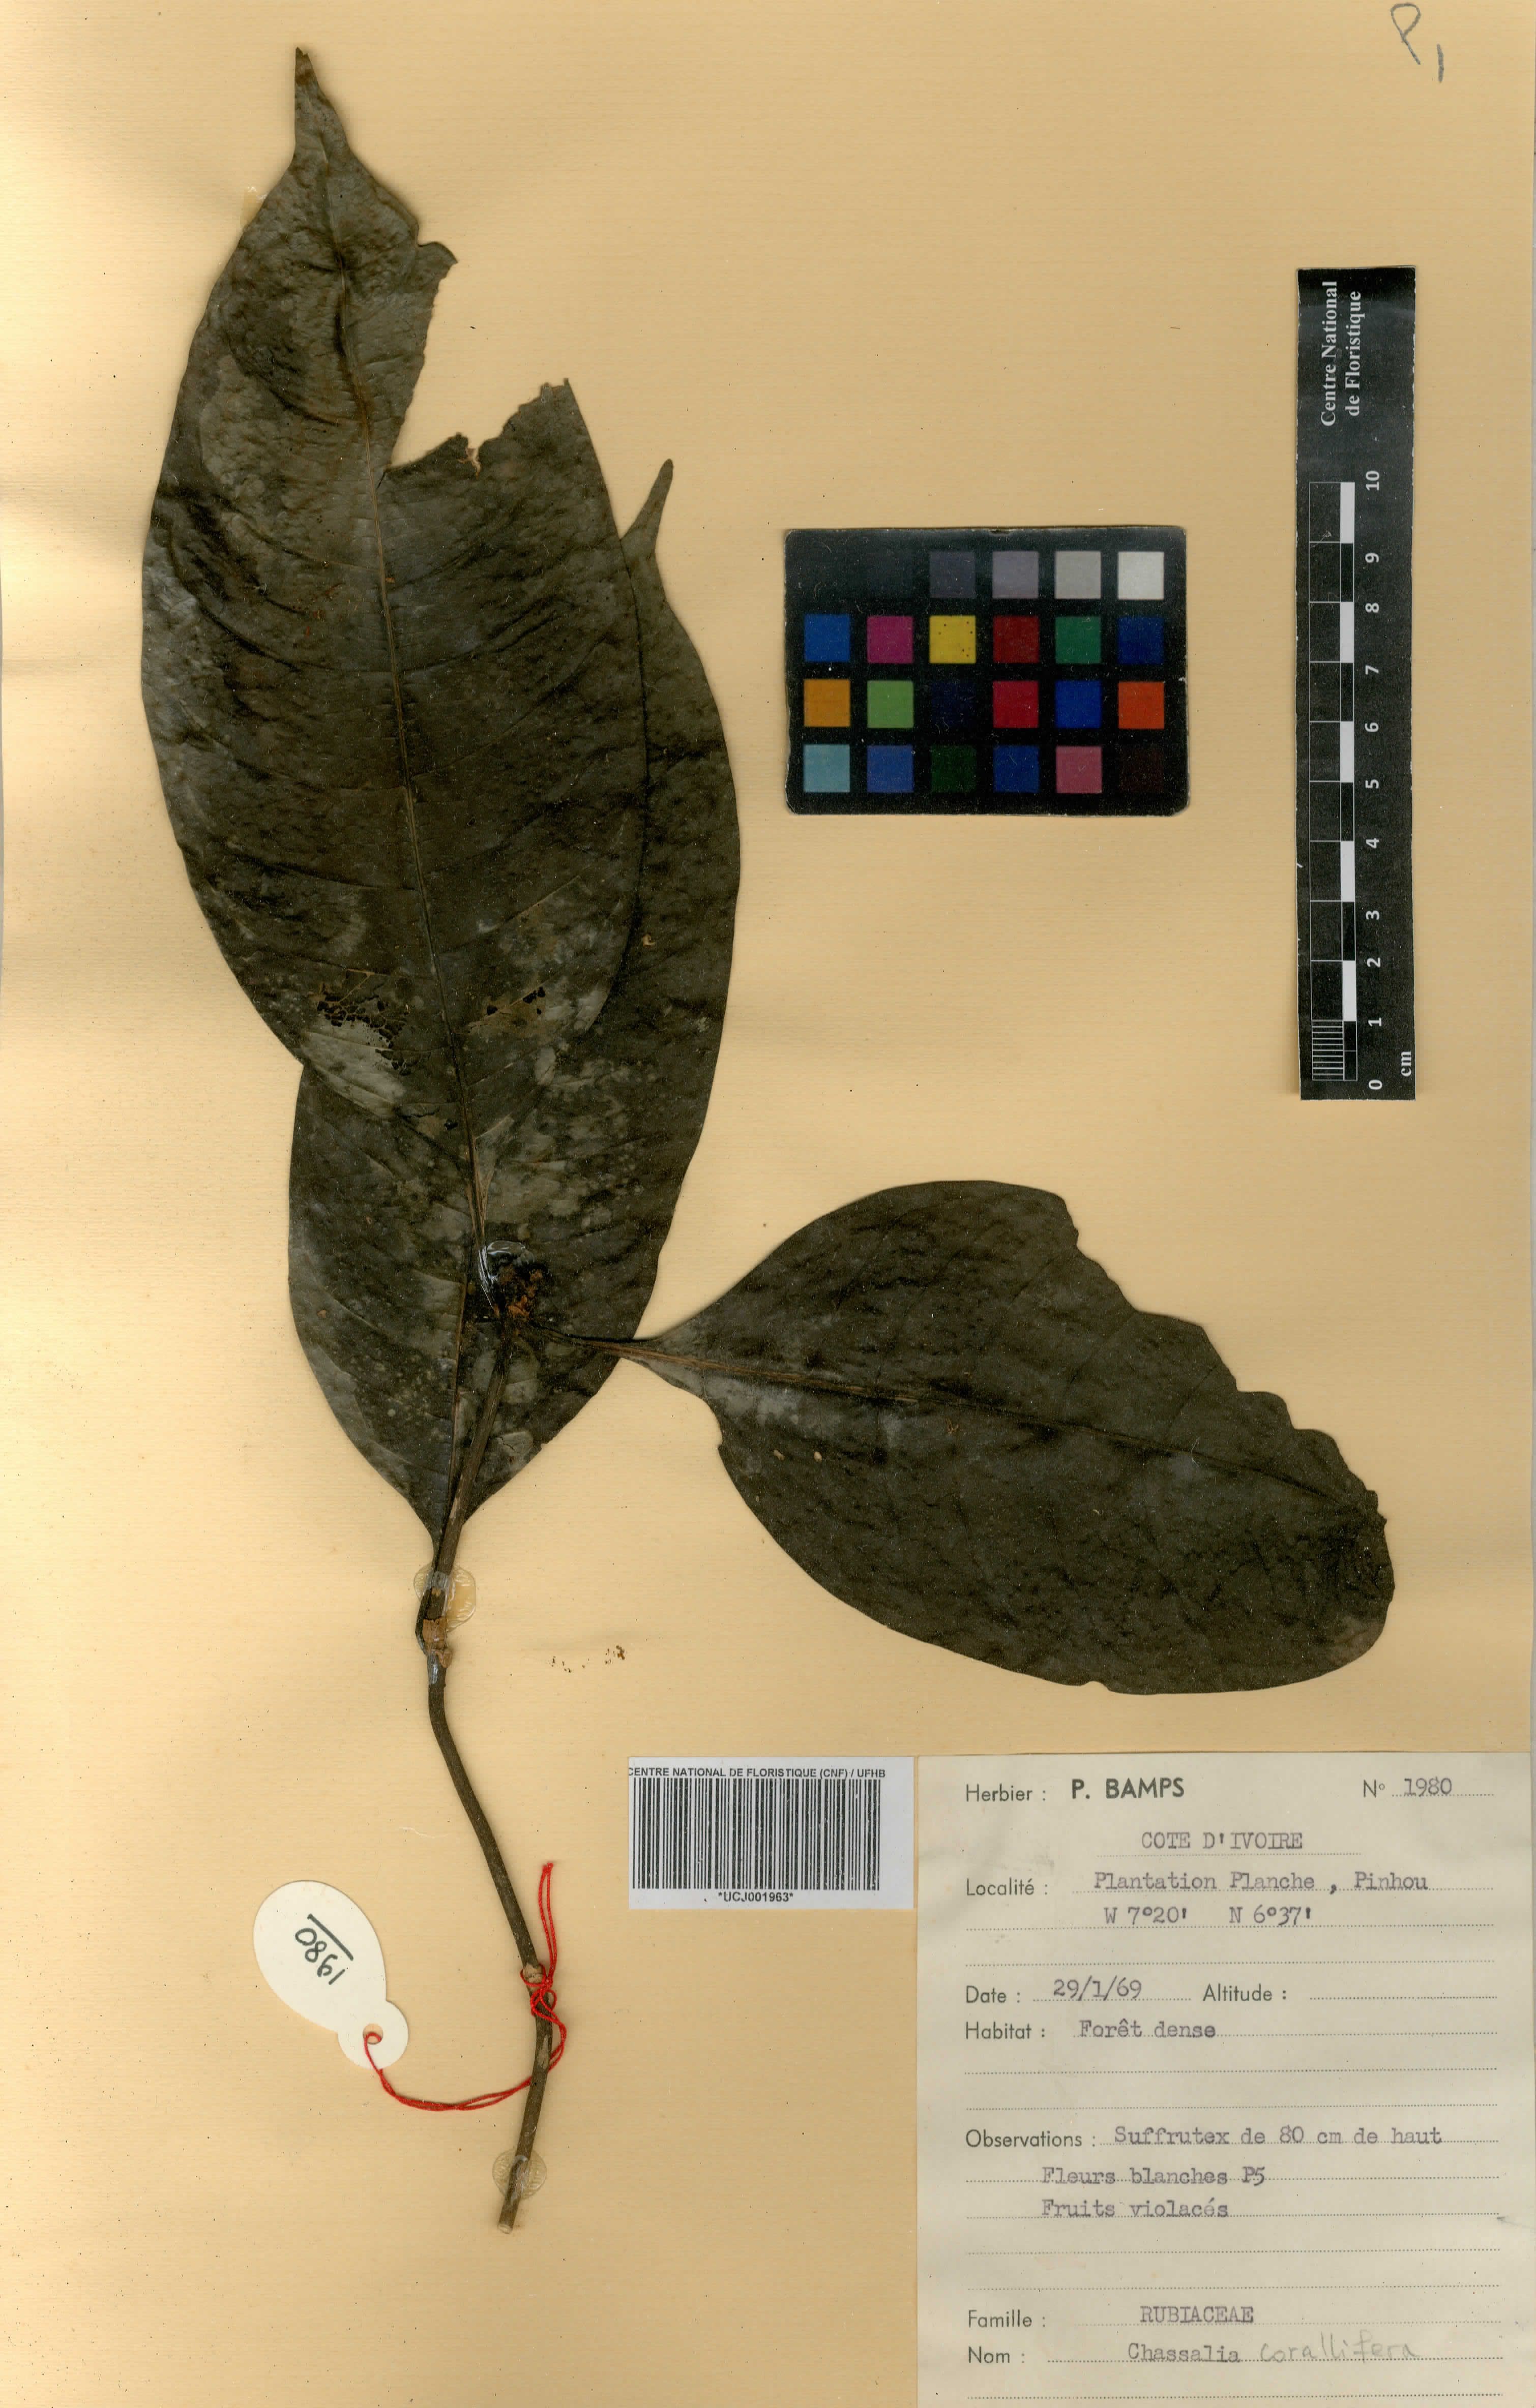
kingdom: Plantae
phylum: Tracheophyta
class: Magnoliopsida
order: Gentianales
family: Rubiaceae
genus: Chassalia
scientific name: Chassalia corallifera
